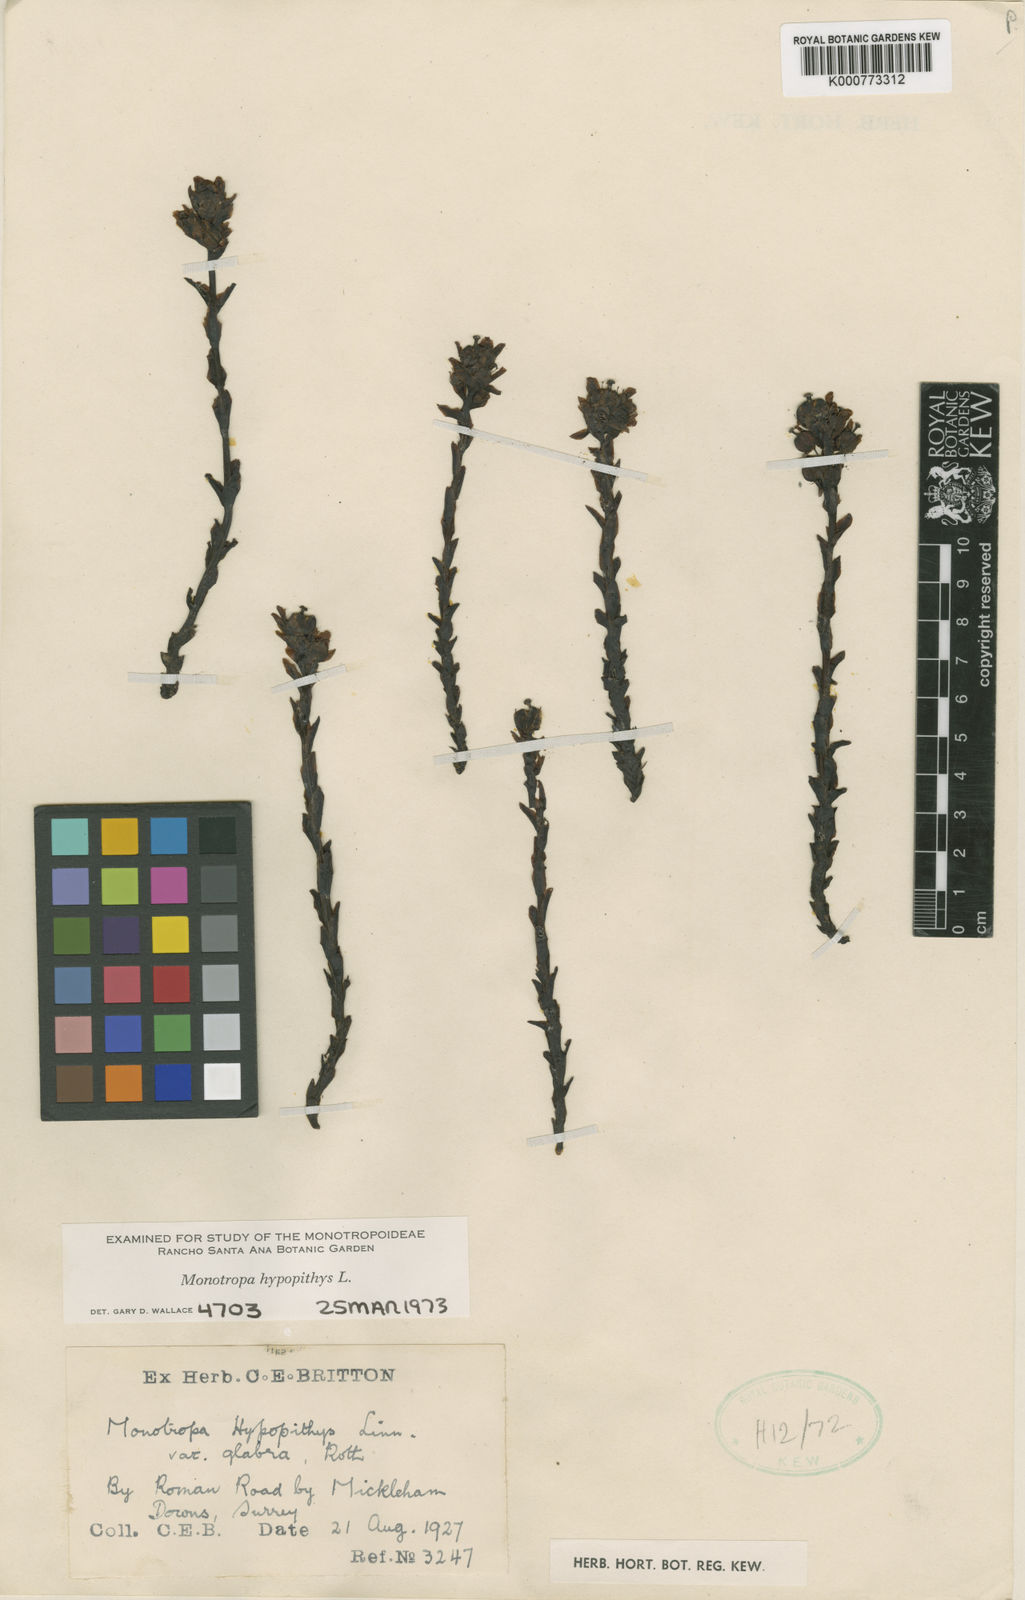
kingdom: Plantae
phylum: Tracheophyta
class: Magnoliopsida
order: Ericales
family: Ericaceae
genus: Monotropa
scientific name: Monotropa
